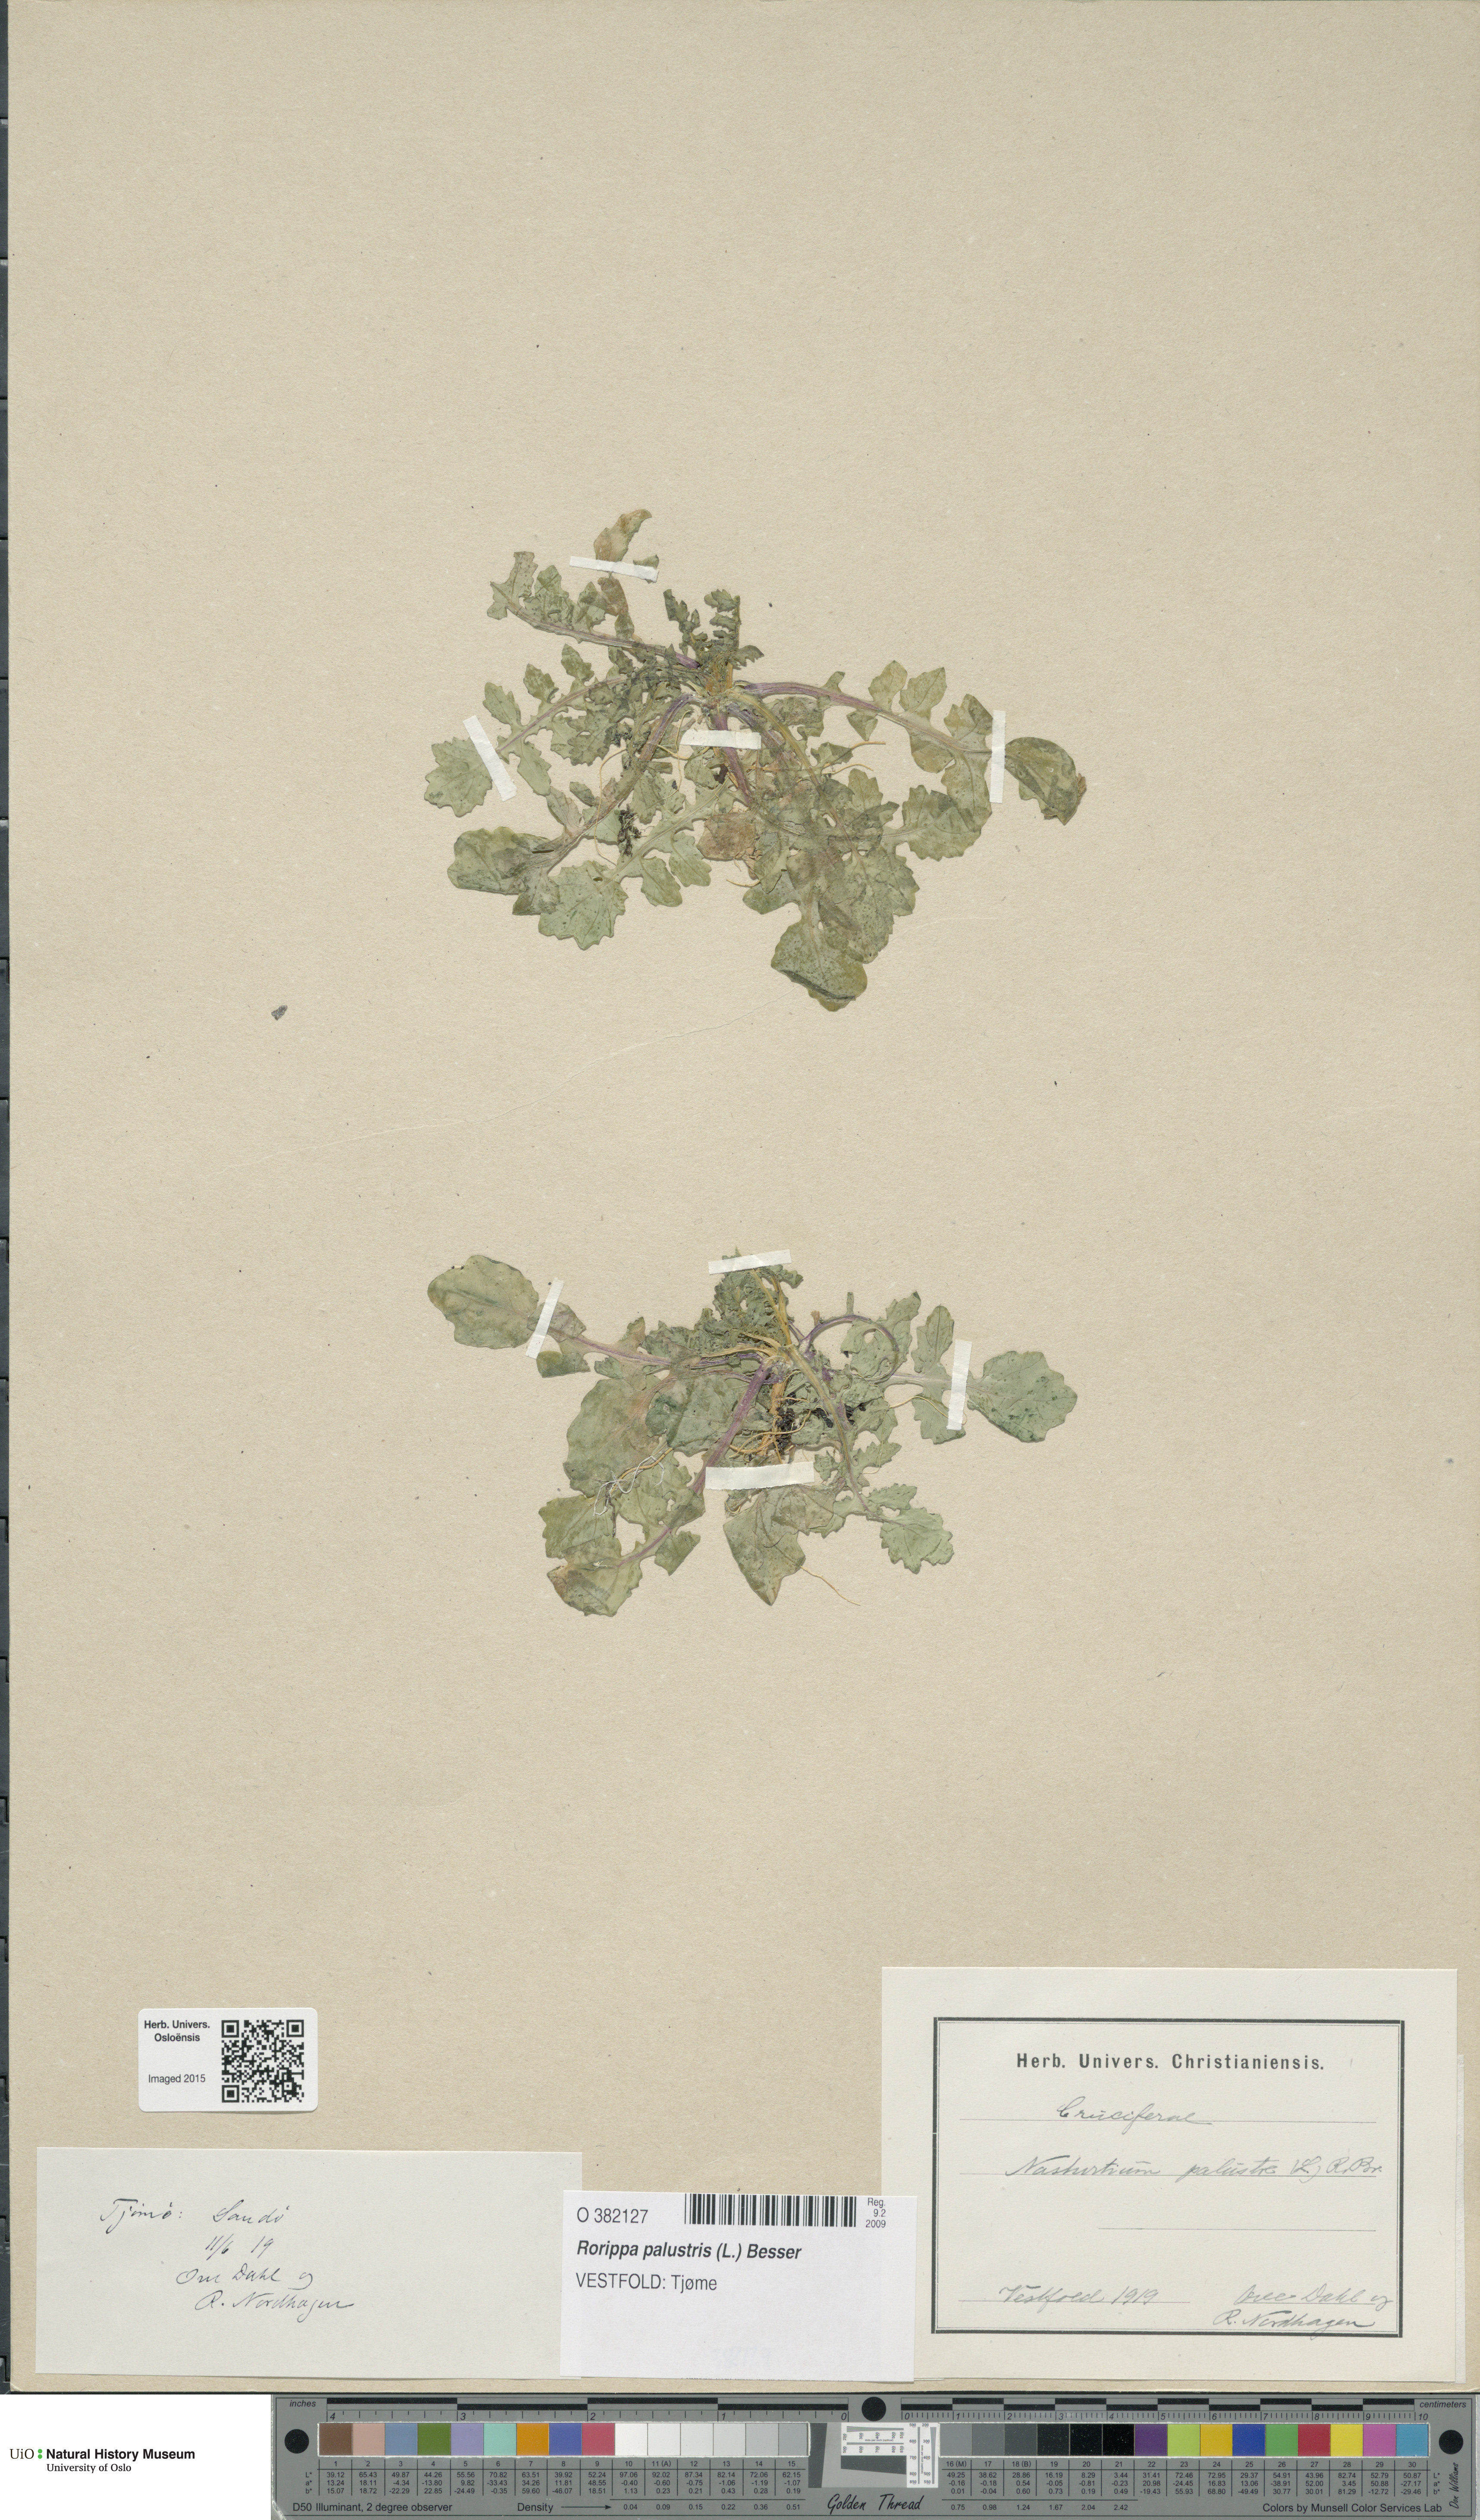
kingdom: Plantae
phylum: Tracheophyta
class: Magnoliopsida
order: Brassicales
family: Brassicaceae
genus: Rorippa
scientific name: Rorippa palustris
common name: Marsh yellow-cress
